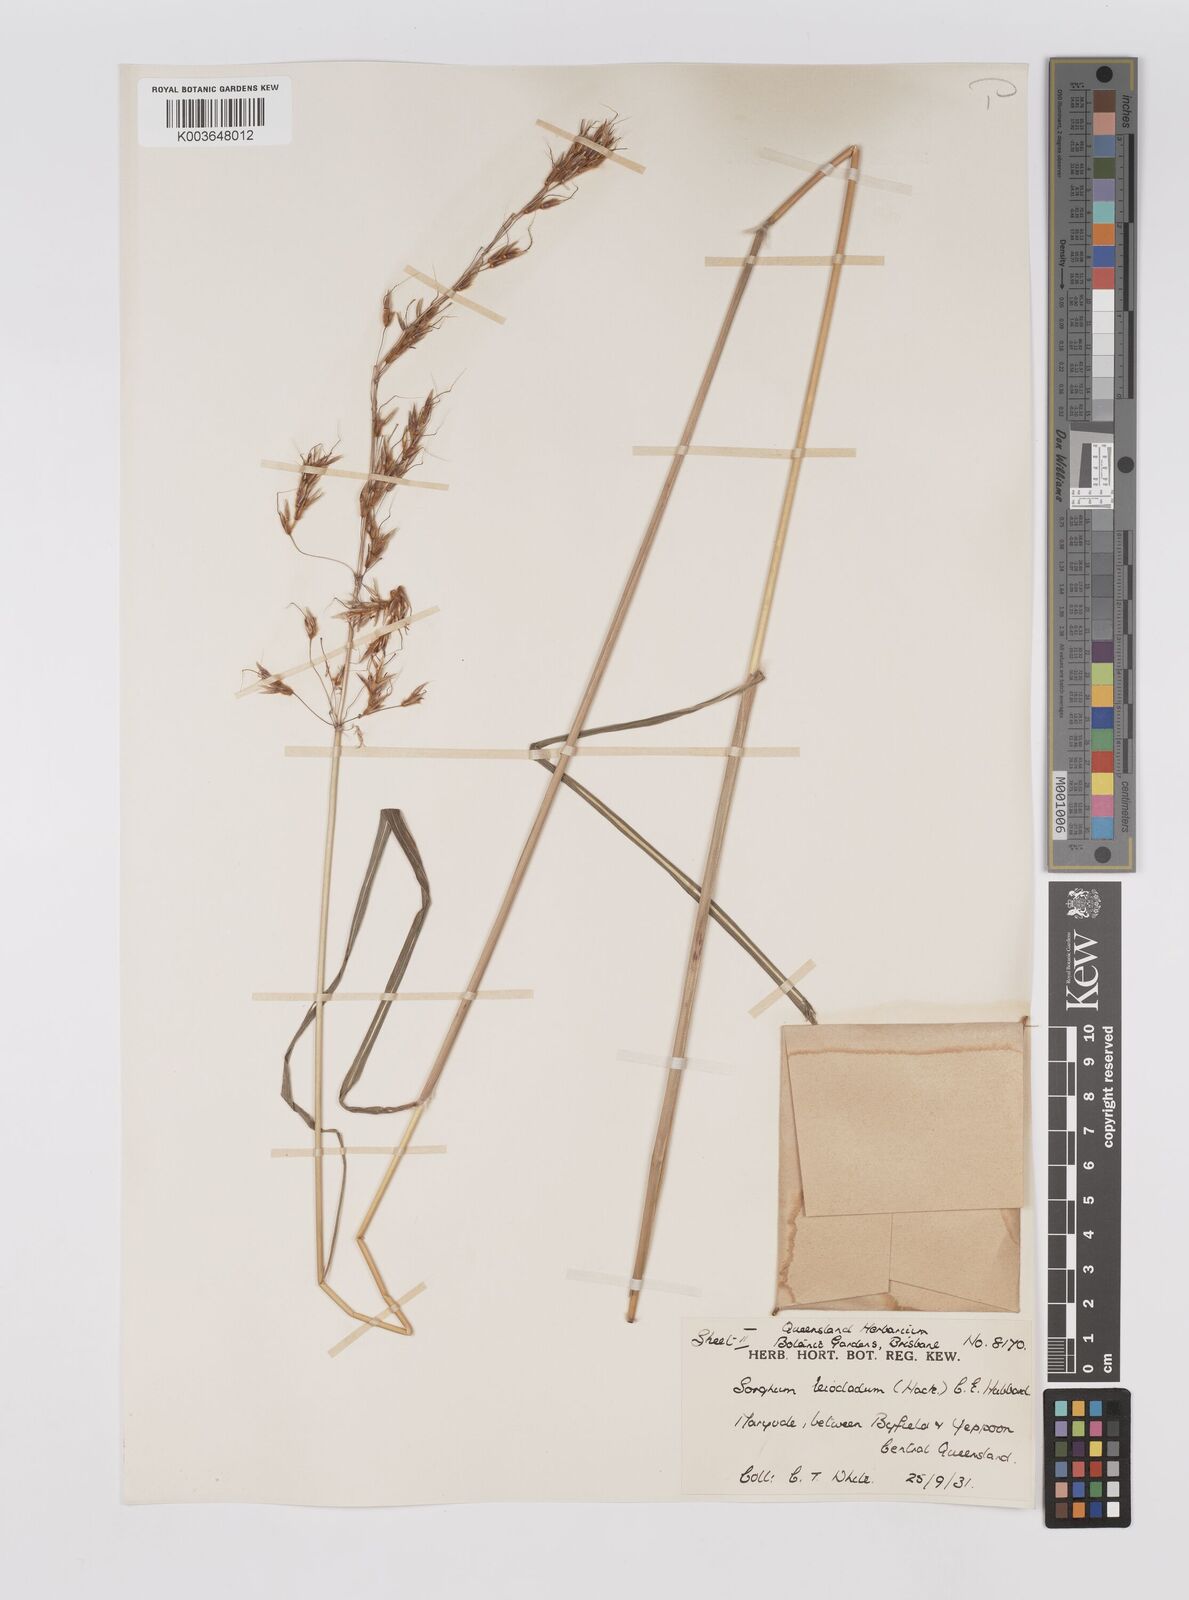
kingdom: Plantae
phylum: Tracheophyta
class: Liliopsida
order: Poales
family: Poaceae
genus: Sarga
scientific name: Sarga leioclada
